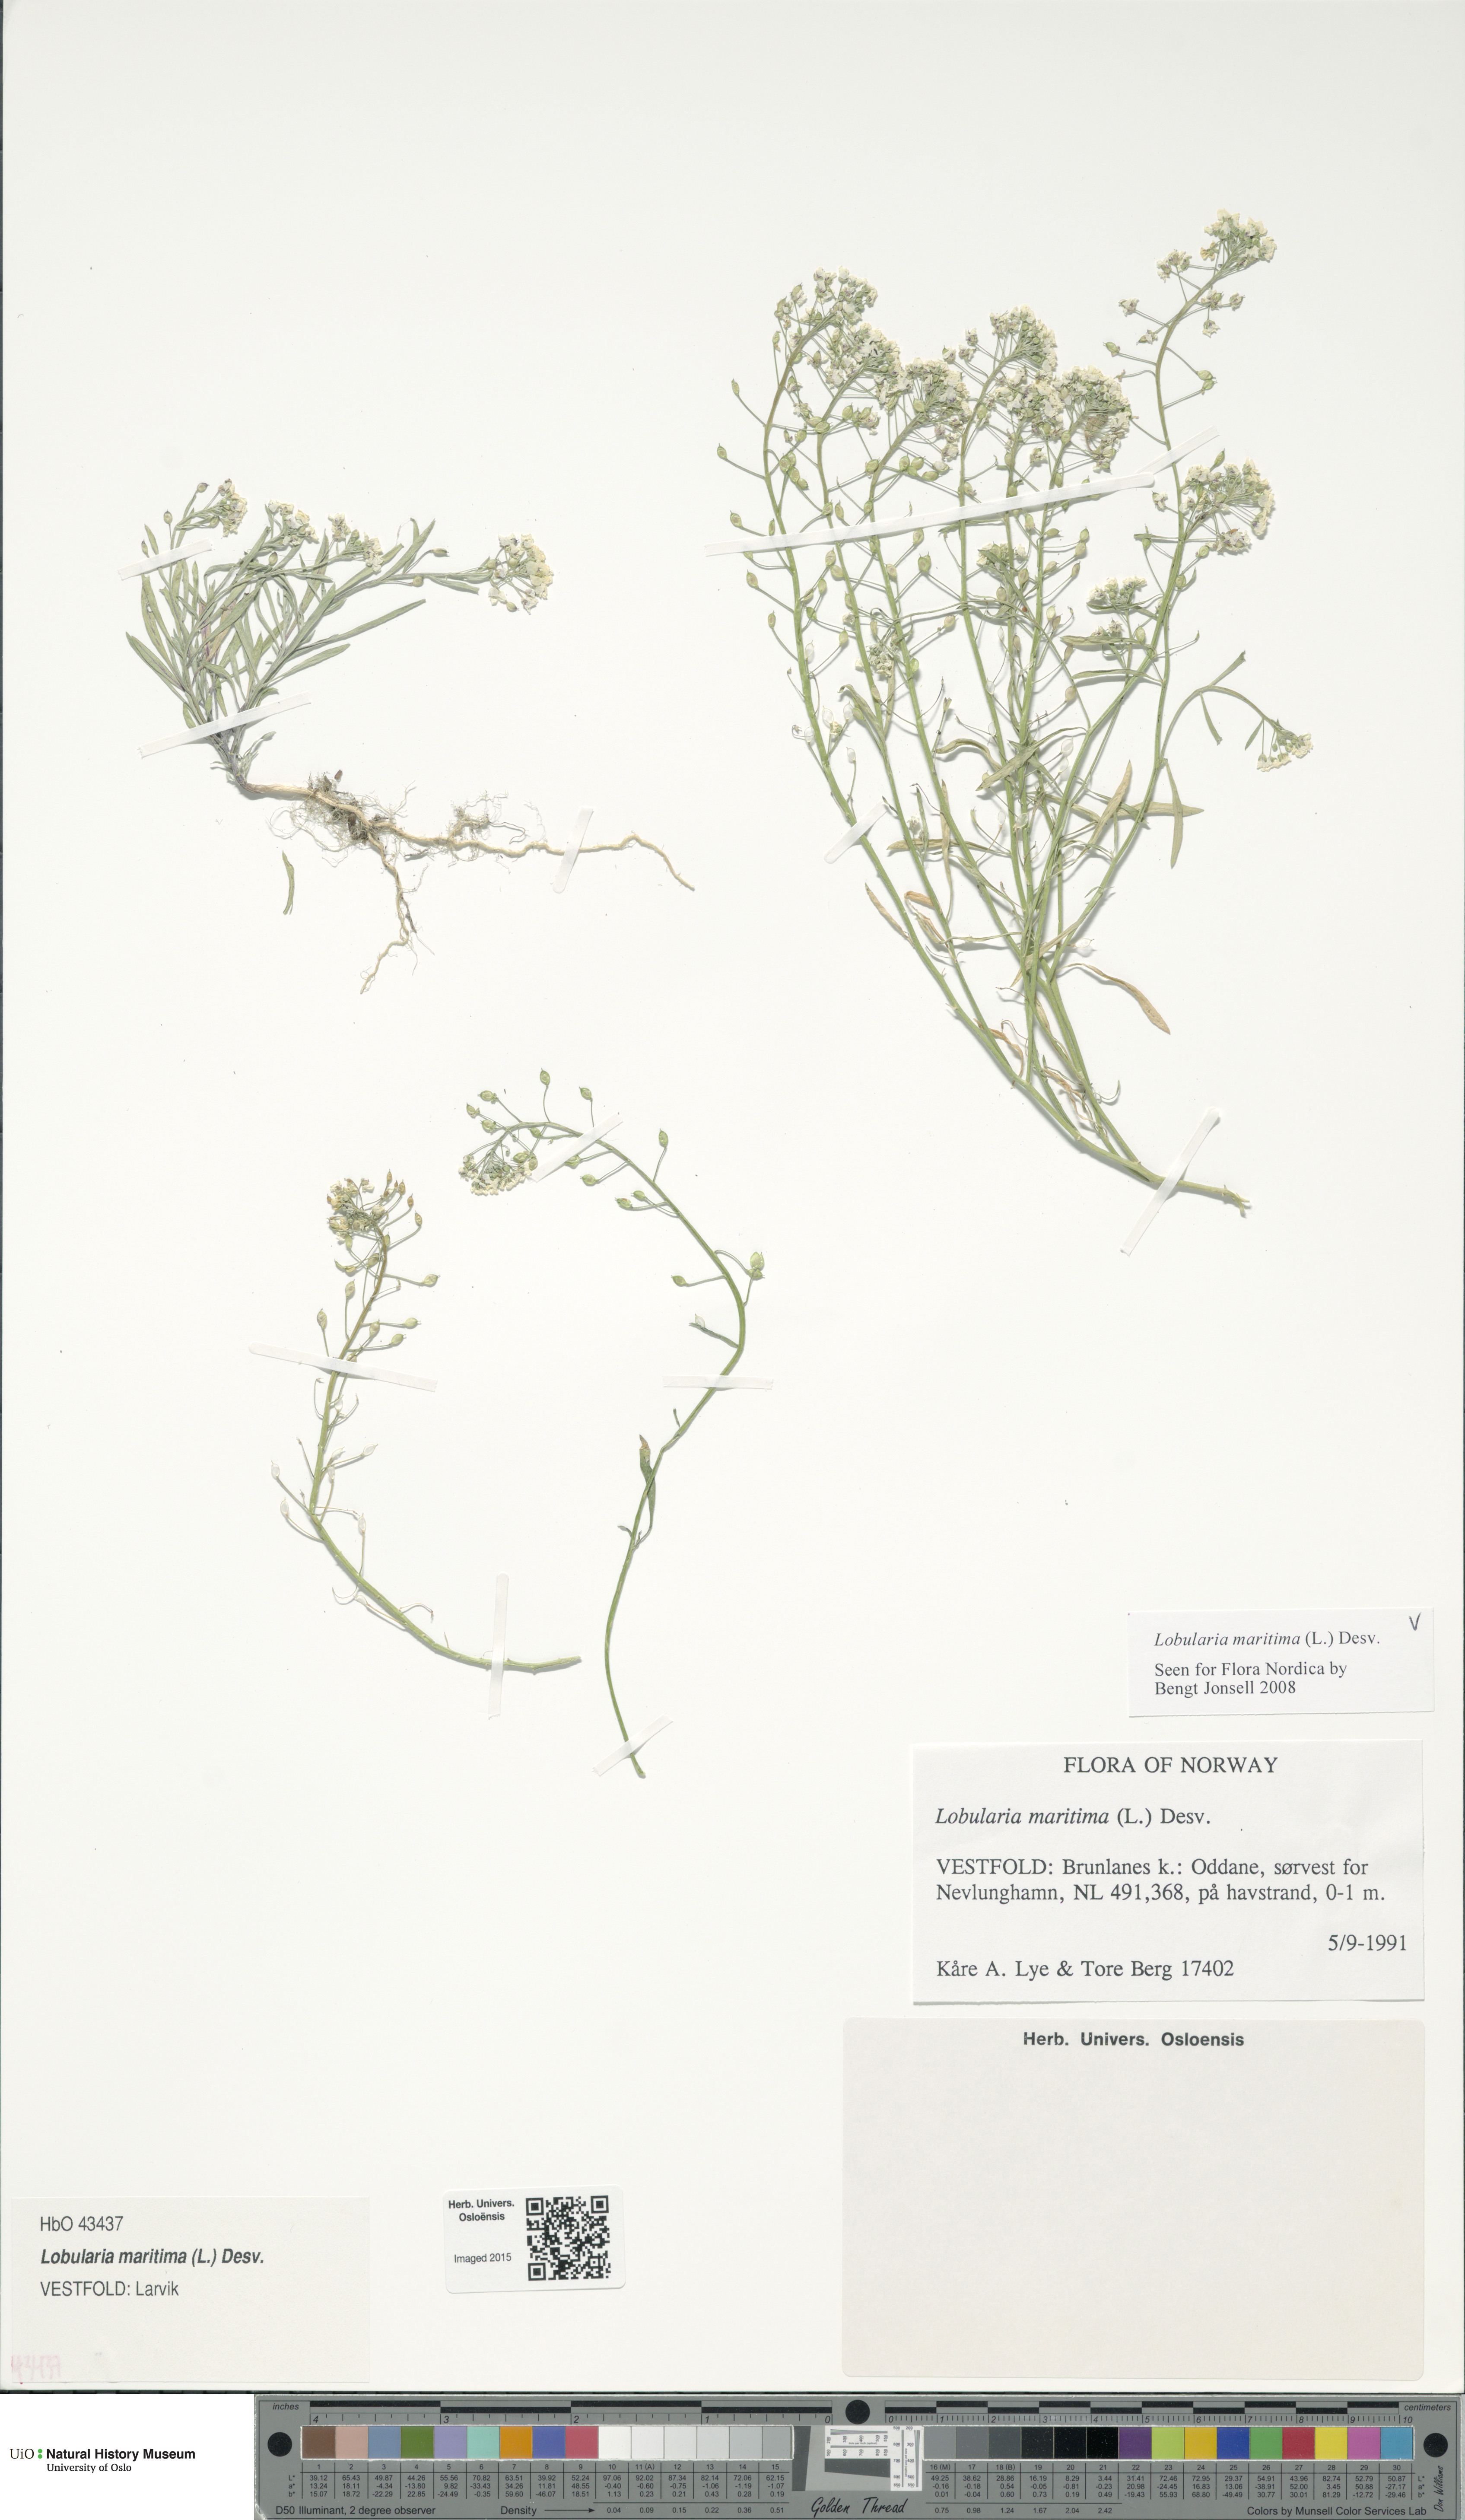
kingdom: Plantae
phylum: Tracheophyta
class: Magnoliopsida
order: Brassicales
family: Brassicaceae
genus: Lobularia
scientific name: Lobularia maritima
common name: Sweet alison
